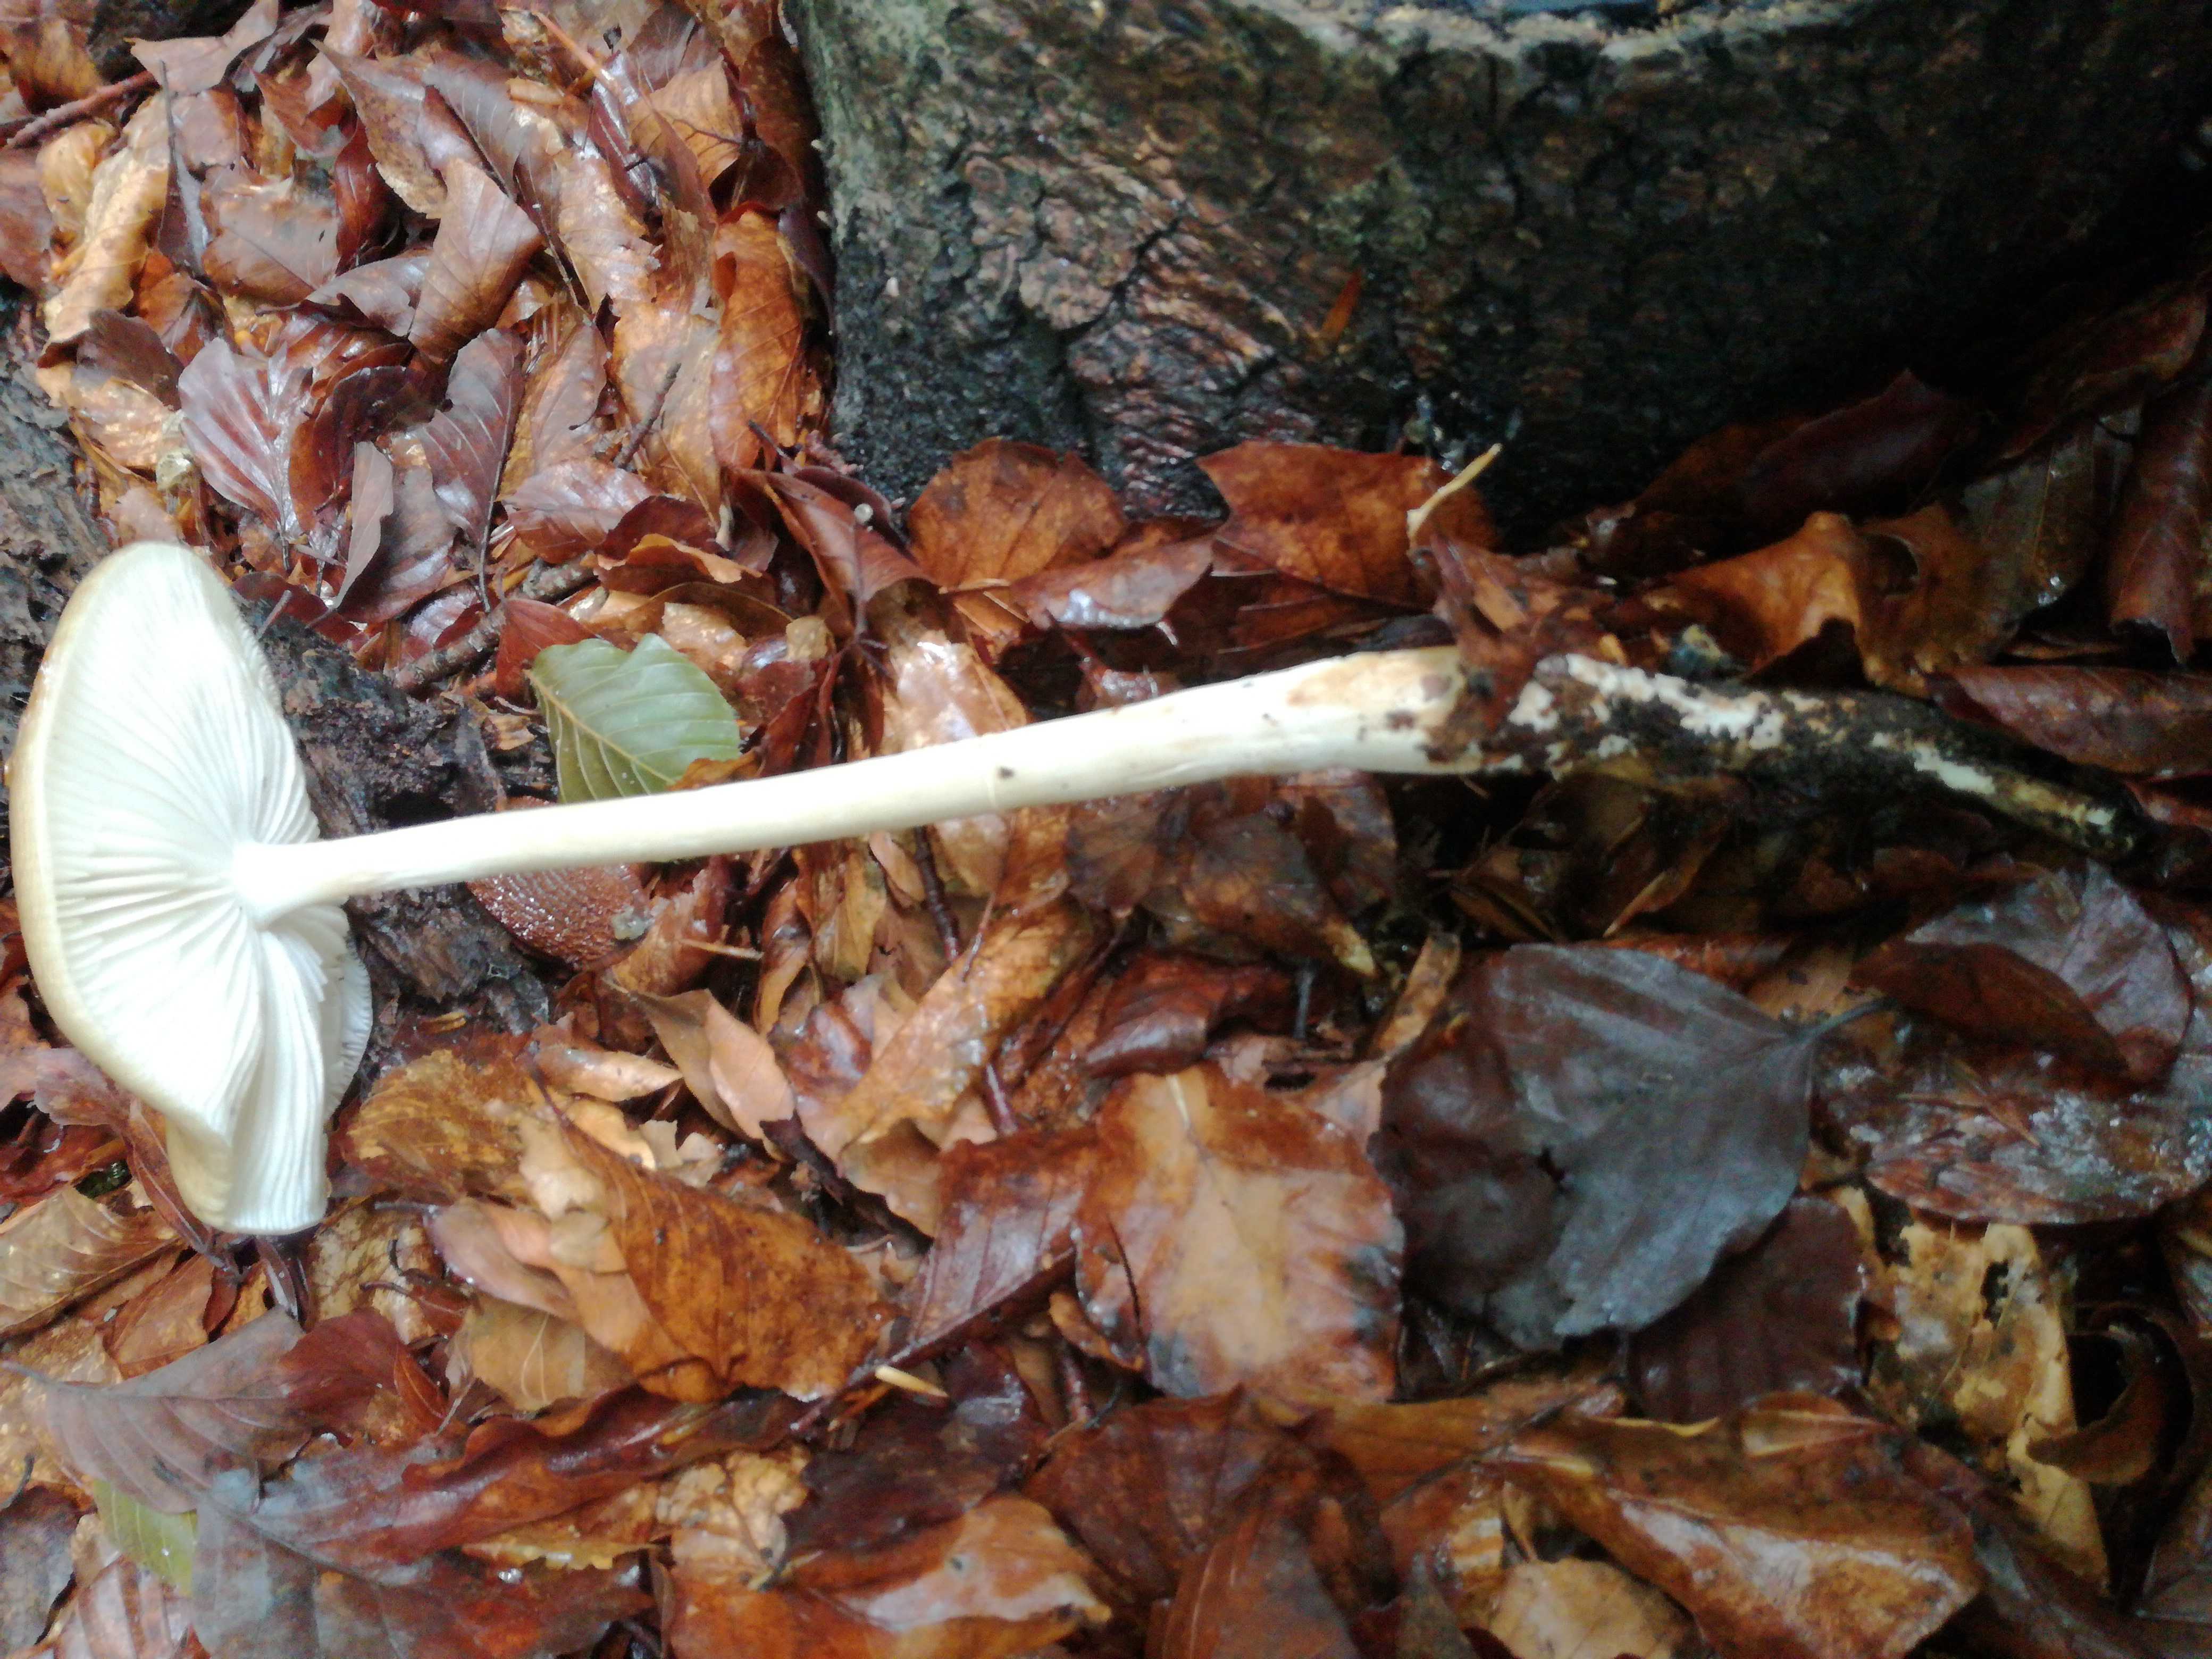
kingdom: Fungi
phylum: Basidiomycota
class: Agaricomycetes
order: Agaricales
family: Physalacriaceae
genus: Hymenopellis
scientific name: Hymenopellis radicata
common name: almindelig pælerodshat
